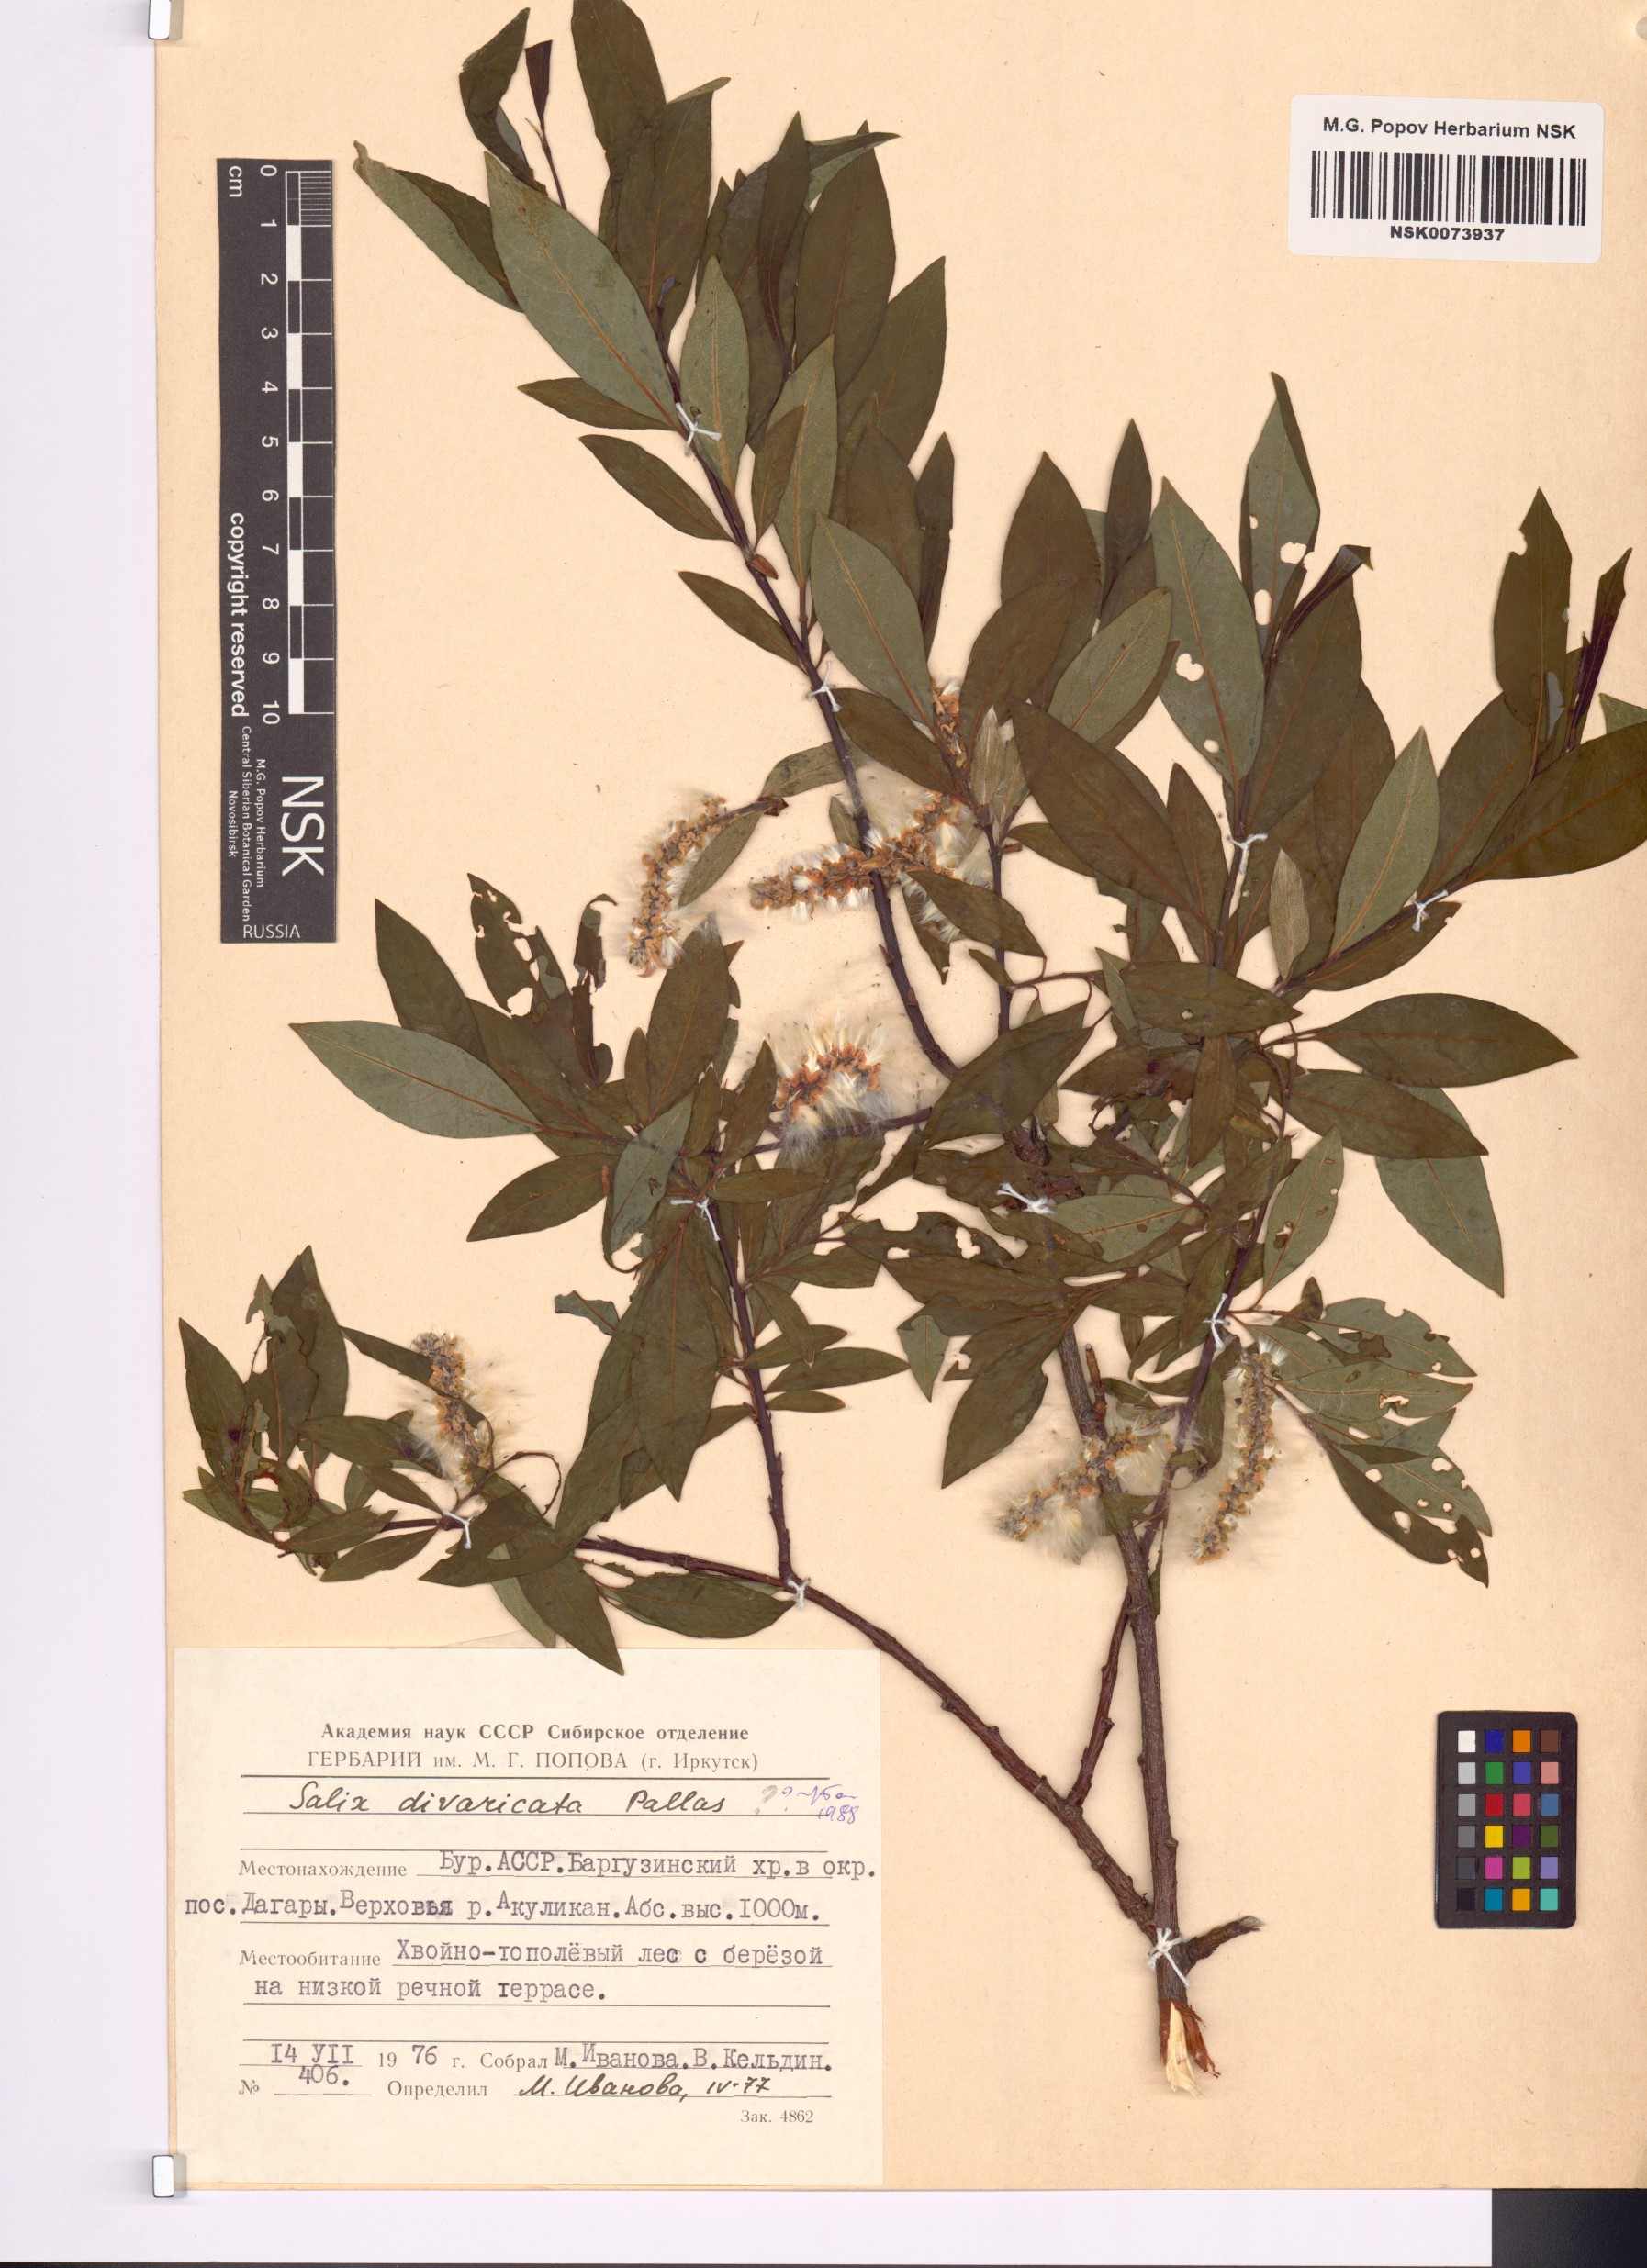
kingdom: Plantae
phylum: Tracheophyta
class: Magnoliopsida
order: Malpighiales
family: Salicaceae
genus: Salix
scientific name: Salix divaricata
